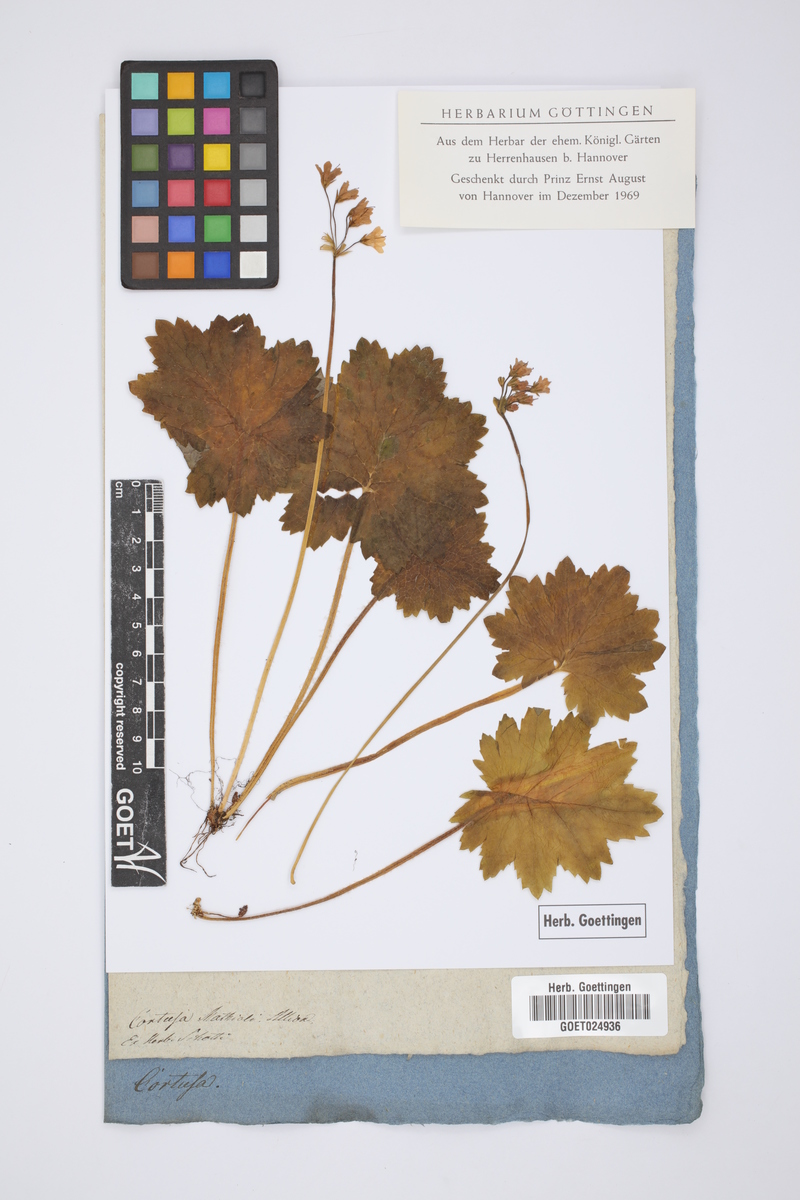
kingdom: Plantae
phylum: Tracheophyta
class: Magnoliopsida
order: Ericales
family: Primulaceae
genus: Primula
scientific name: Primula matthioli
